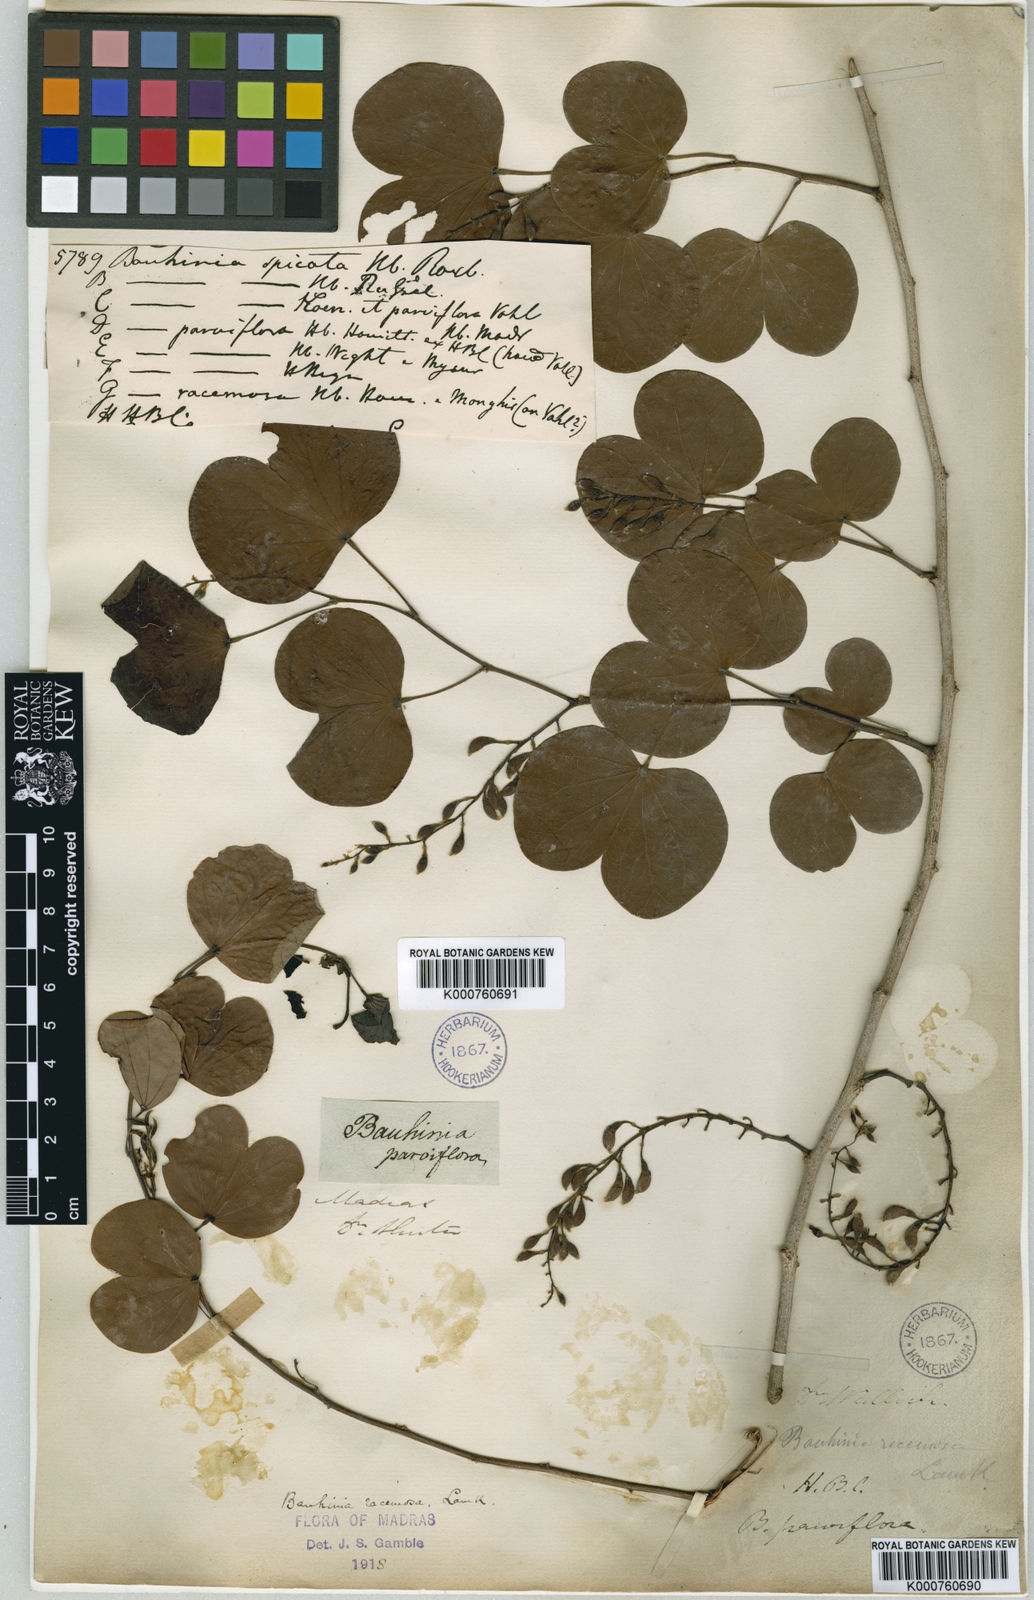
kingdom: Plantae
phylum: Tracheophyta
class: Magnoliopsida
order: Fabales
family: Fabaceae
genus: Bauhinia
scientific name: Bauhinia racemosa
